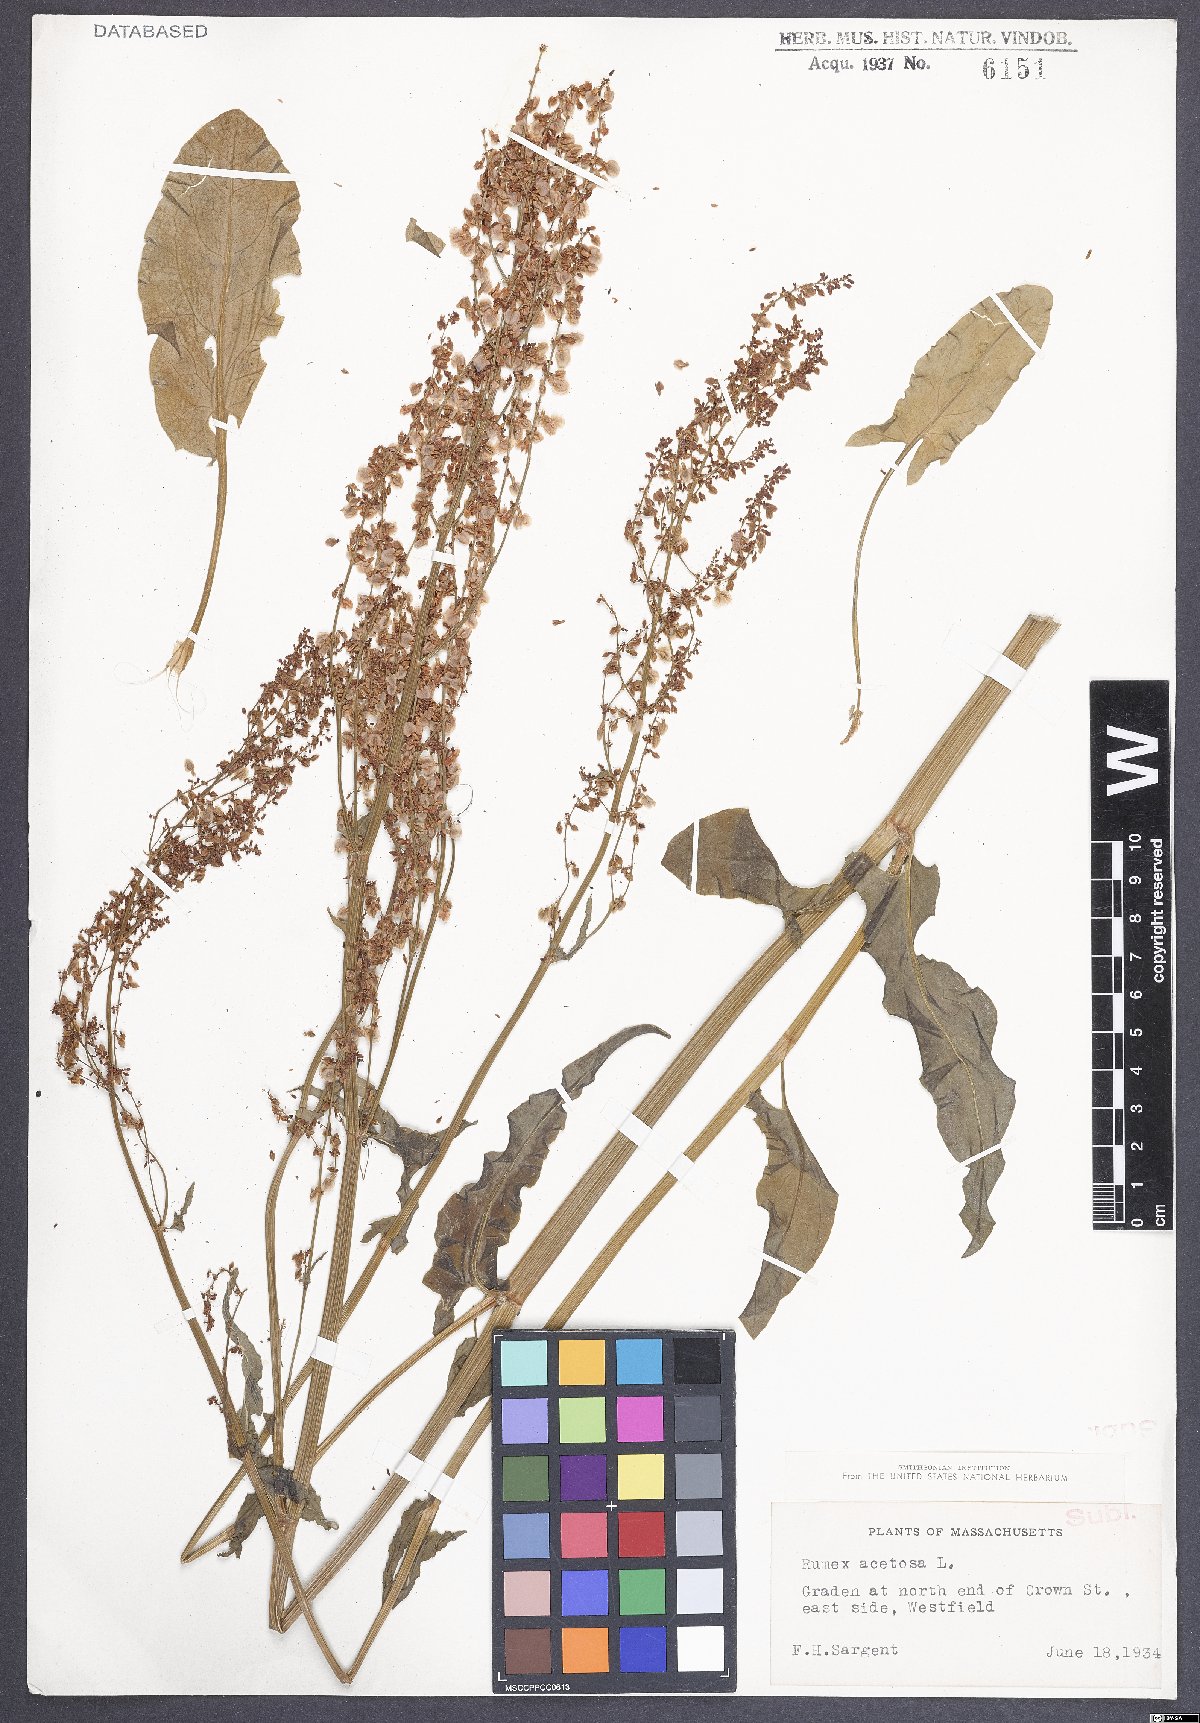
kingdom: Plantae
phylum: Tracheophyta
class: Magnoliopsida
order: Caryophyllales
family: Polygonaceae
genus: Rumex
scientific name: Rumex acetosa
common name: Garden sorrel
